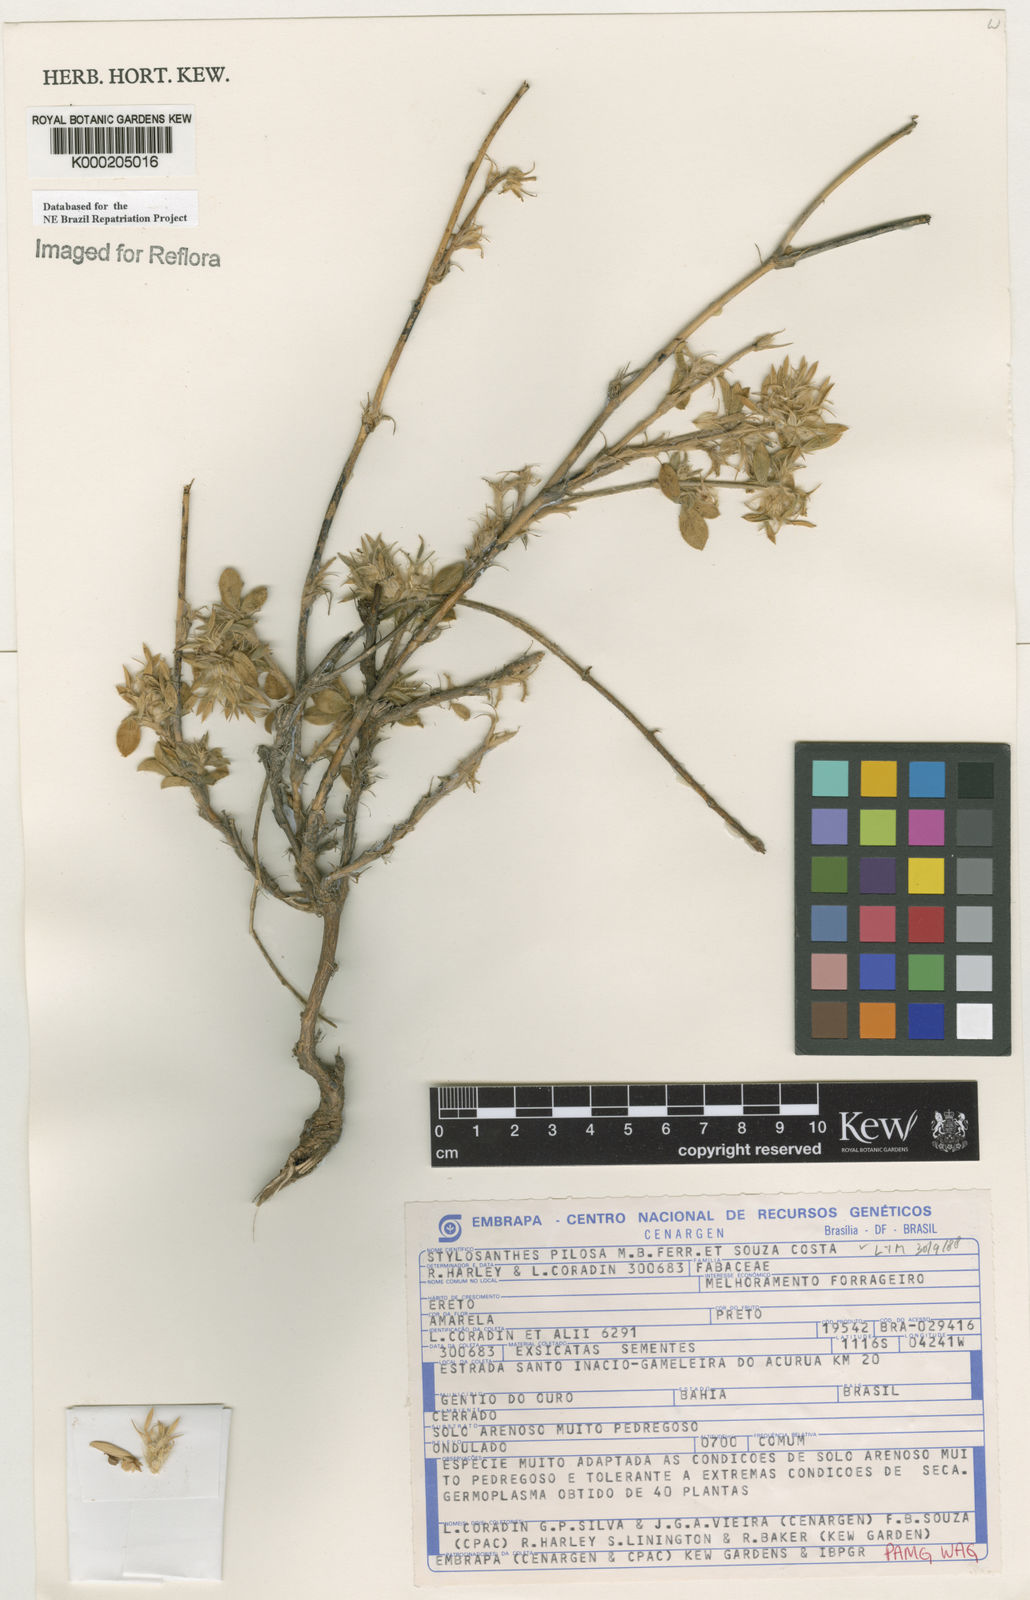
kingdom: Plantae
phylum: Tracheophyta
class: Magnoliopsida
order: Fabales
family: Fabaceae
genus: Stylosanthes
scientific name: Stylosanthes viscosa
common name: Viscid pencil-flower
